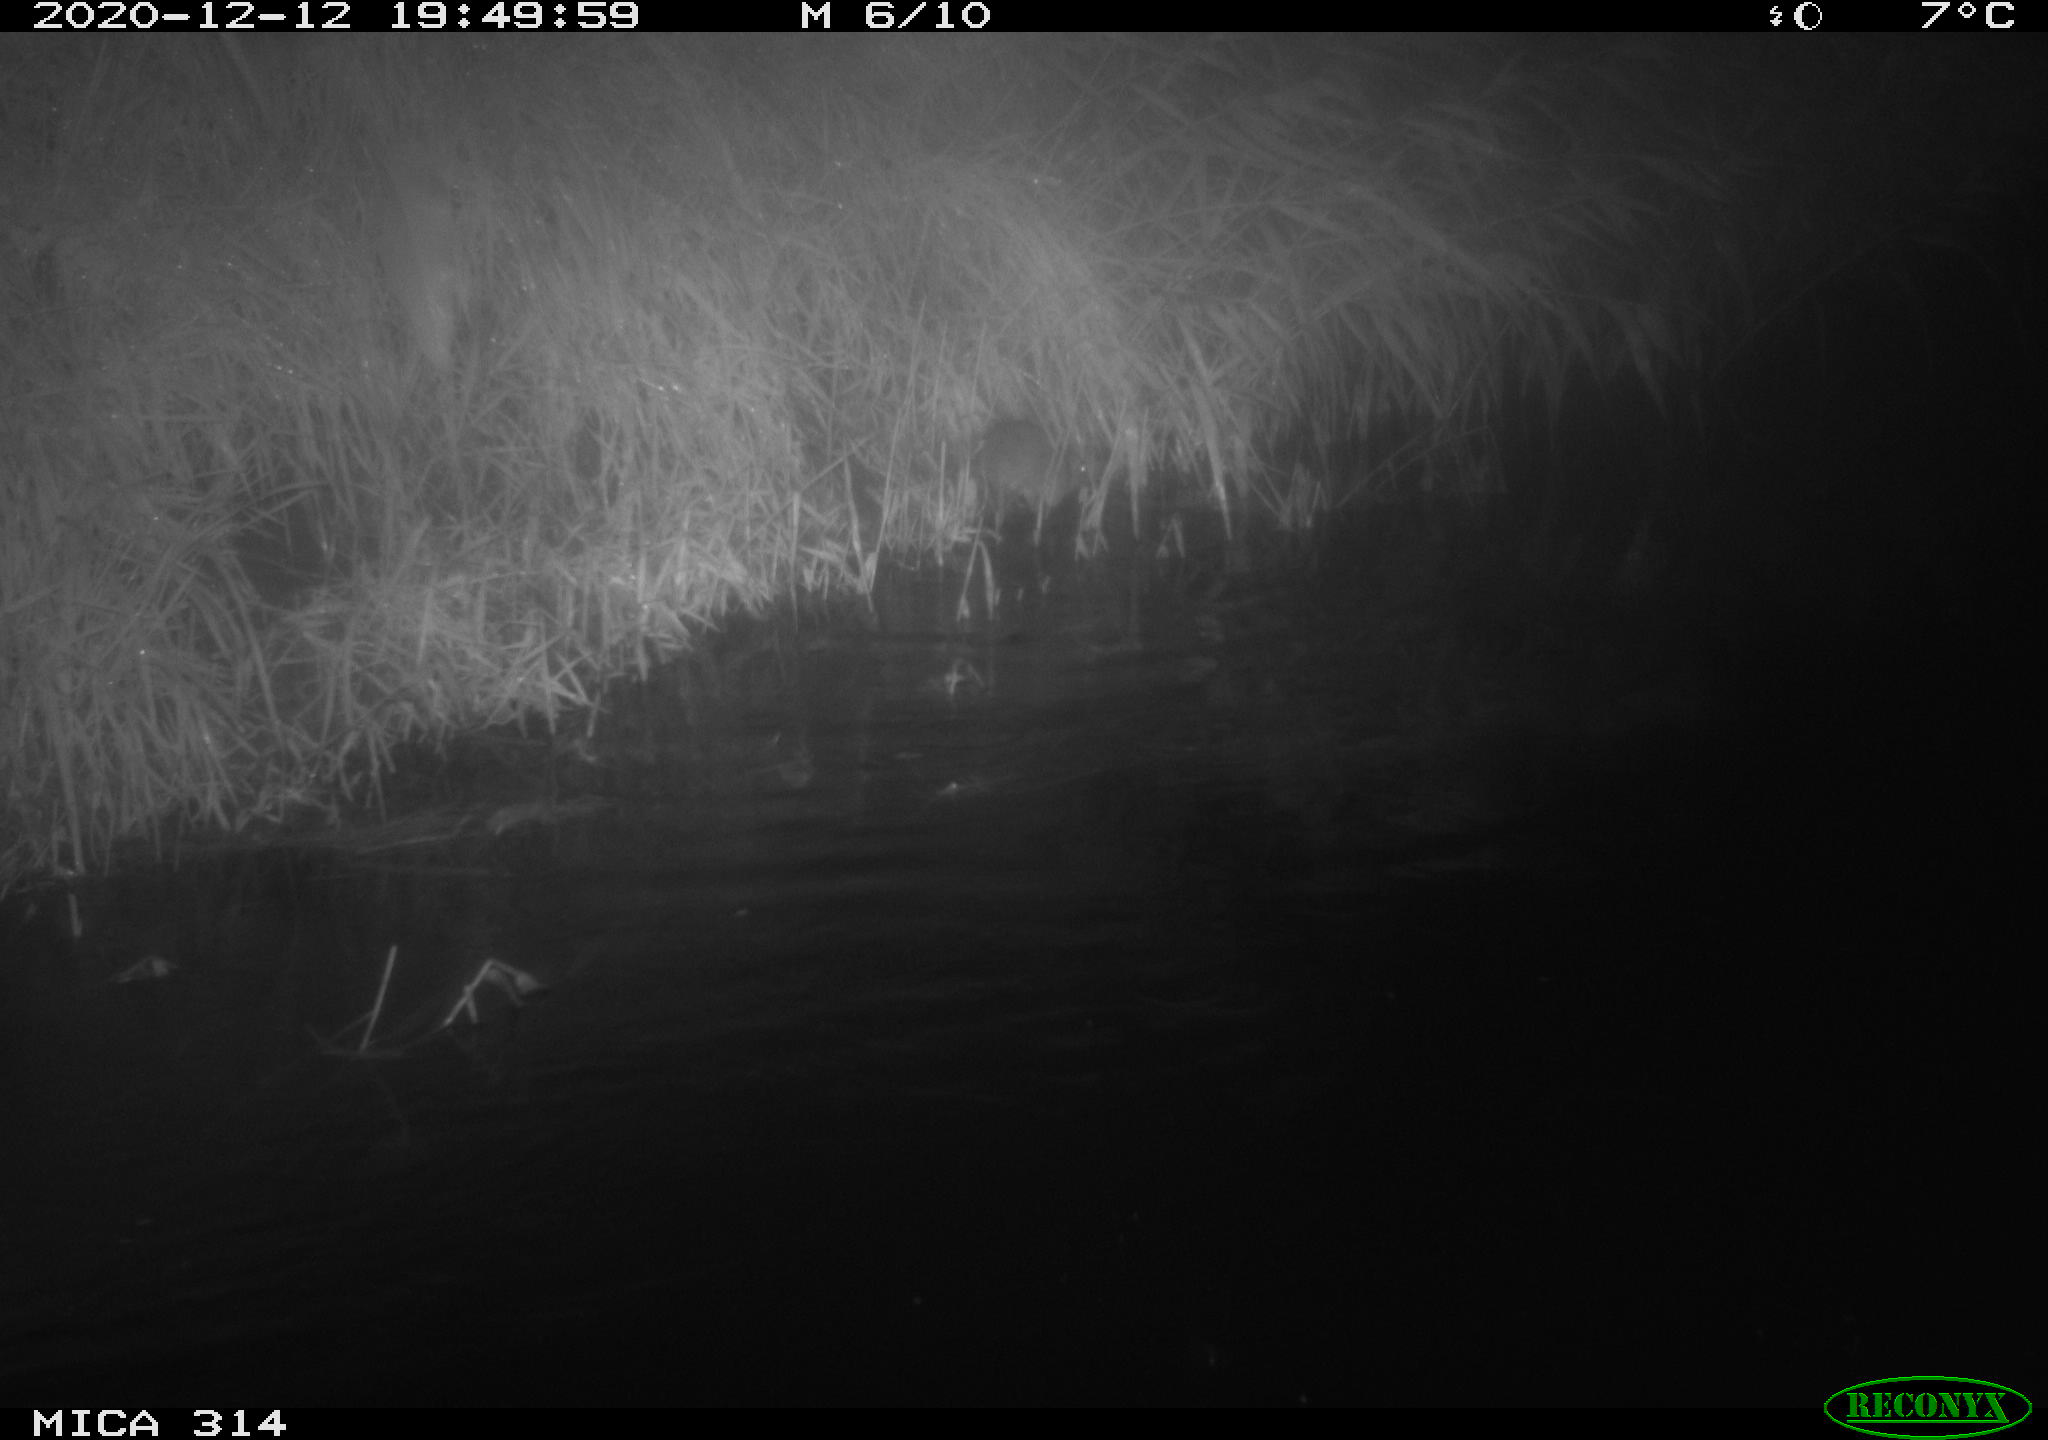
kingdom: Animalia
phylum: Chordata
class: Mammalia
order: Rodentia
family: Muridae
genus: Rattus
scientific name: Rattus norvegicus
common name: Brown rat
